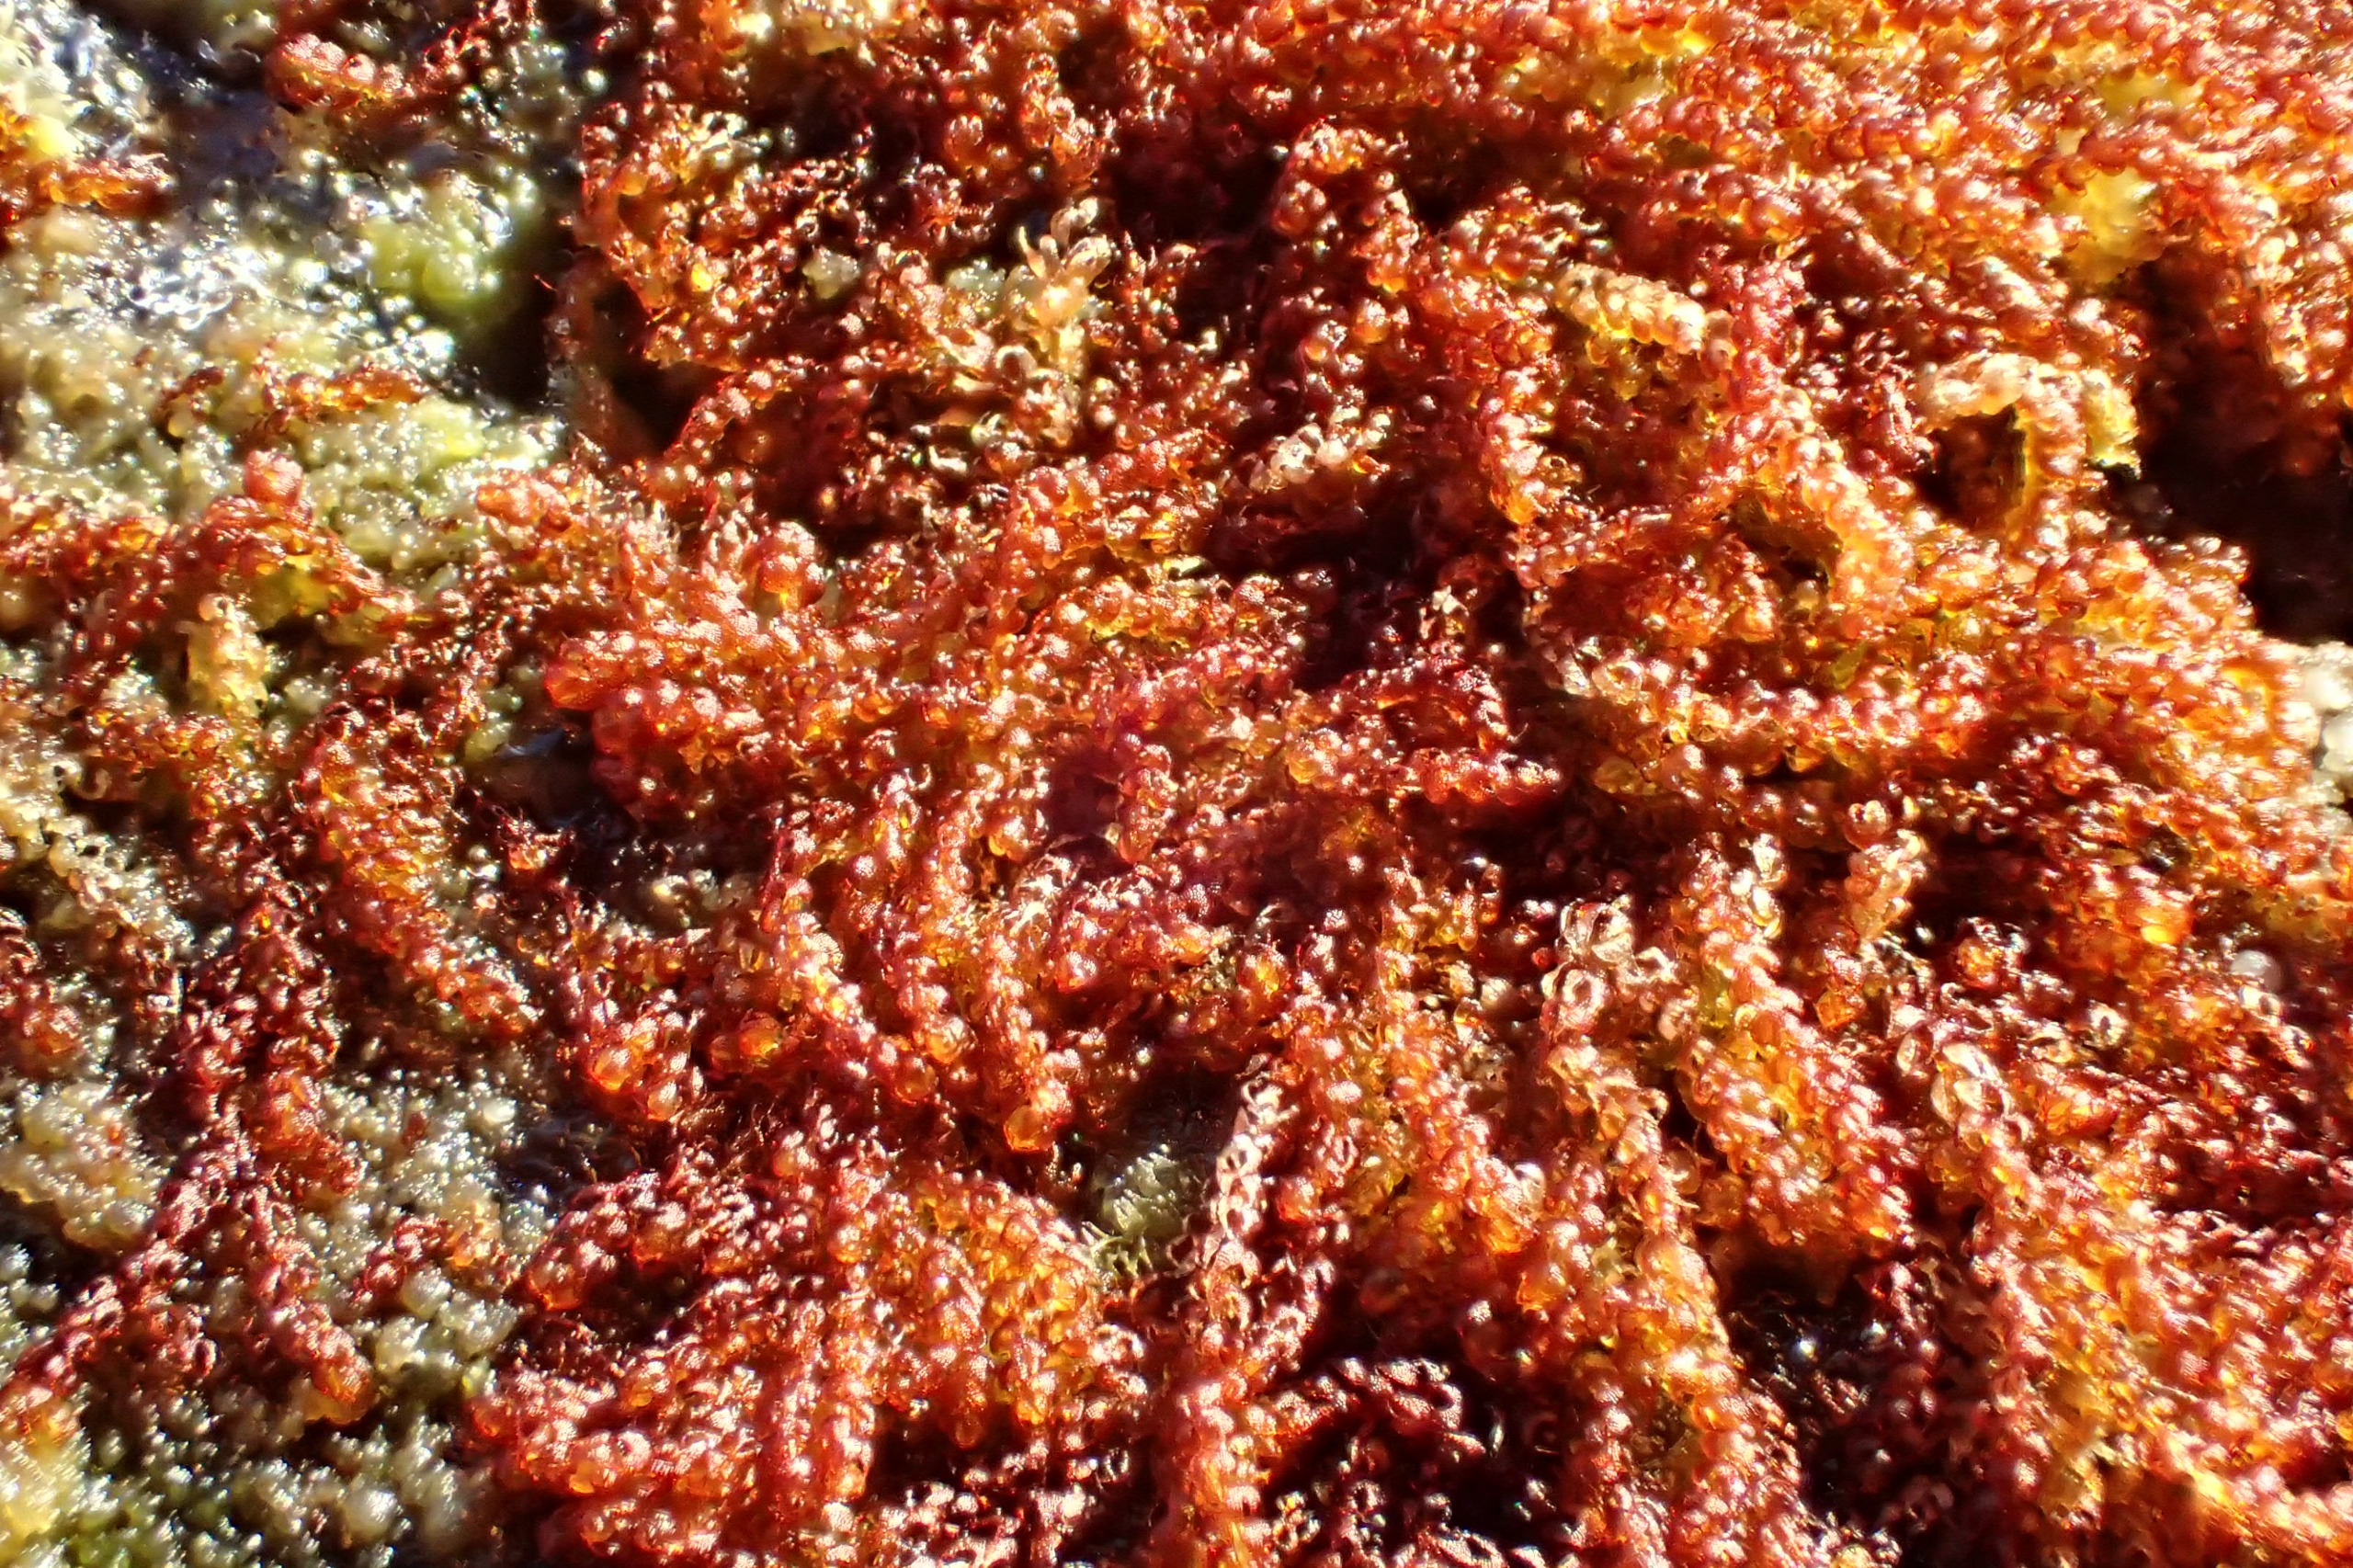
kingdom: Plantae
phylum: Marchantiophyta
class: Jungermanniopsida
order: Jungermanniales
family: Cephaloziaceae
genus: Nowellia
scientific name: Nowellia curvifolia
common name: Krumbladet stødmos
